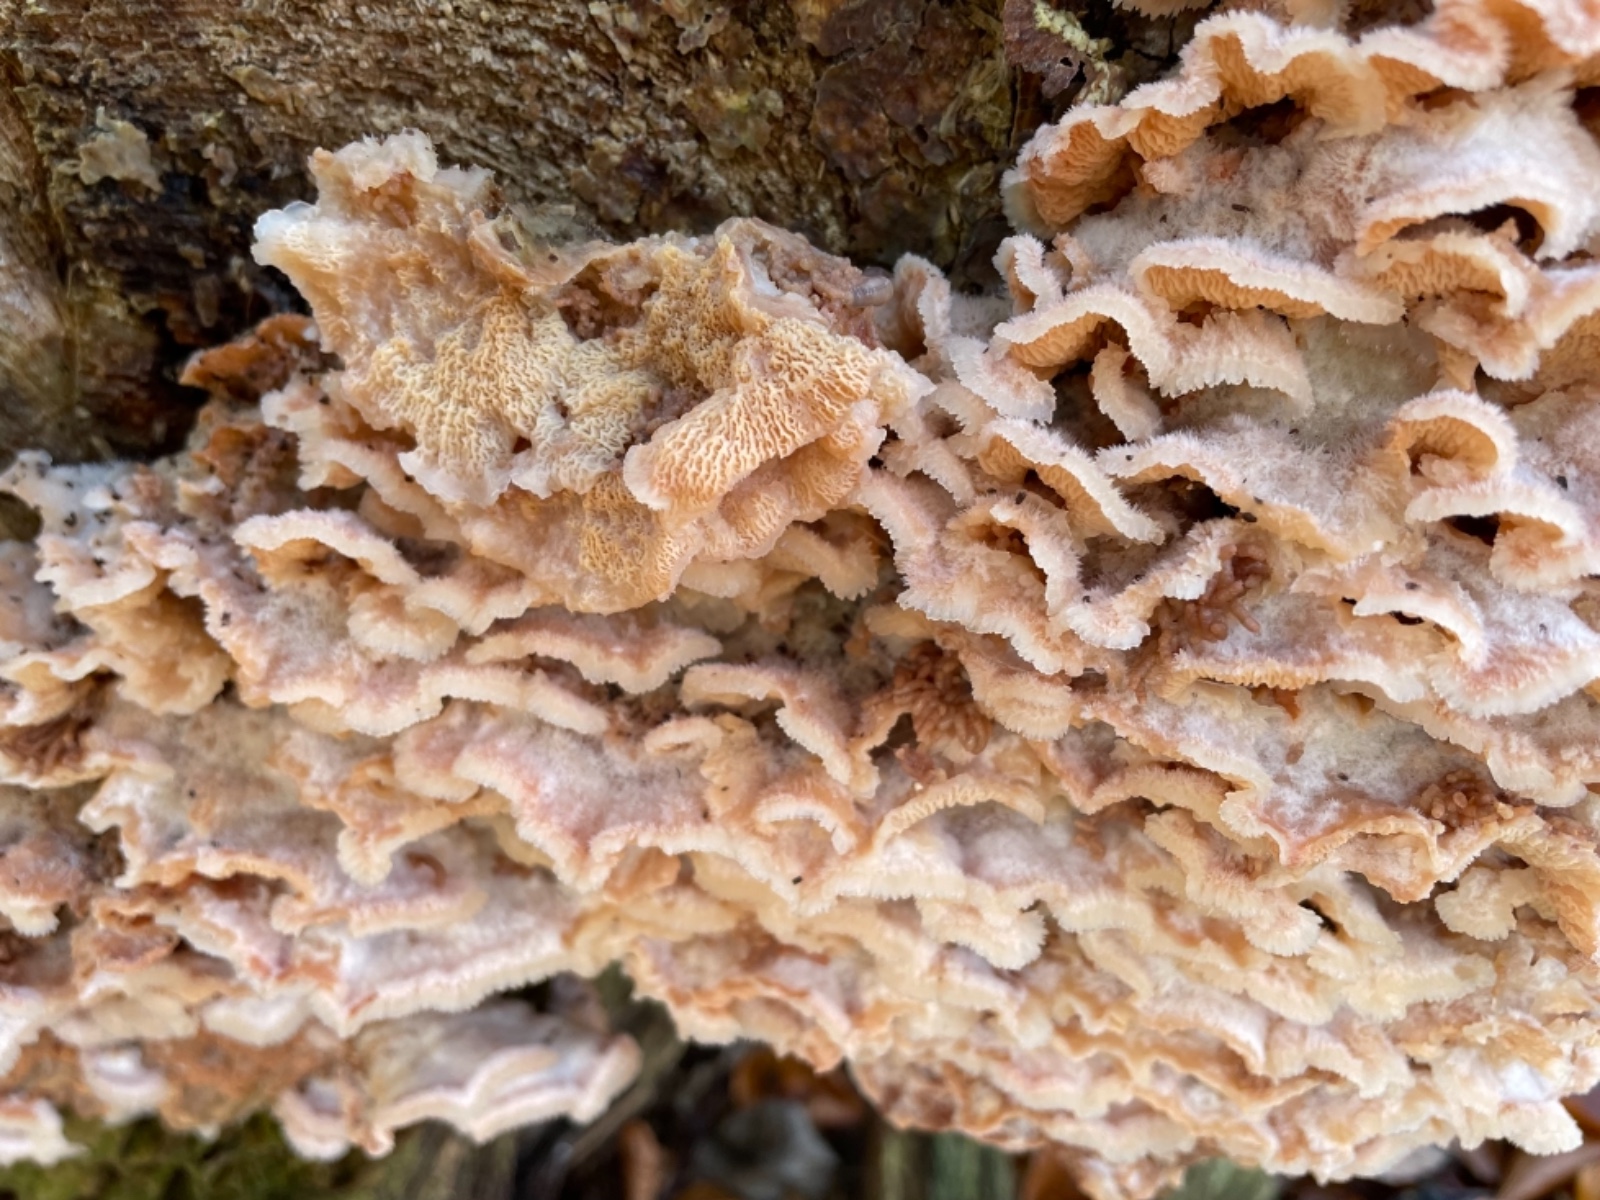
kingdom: Fungi
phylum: Basidiomycota
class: Agaricomycetes
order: Polyporales
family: Meruliaceae
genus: Phlebia
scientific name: Phlebia tremellosa
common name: bævrende åresvamp
